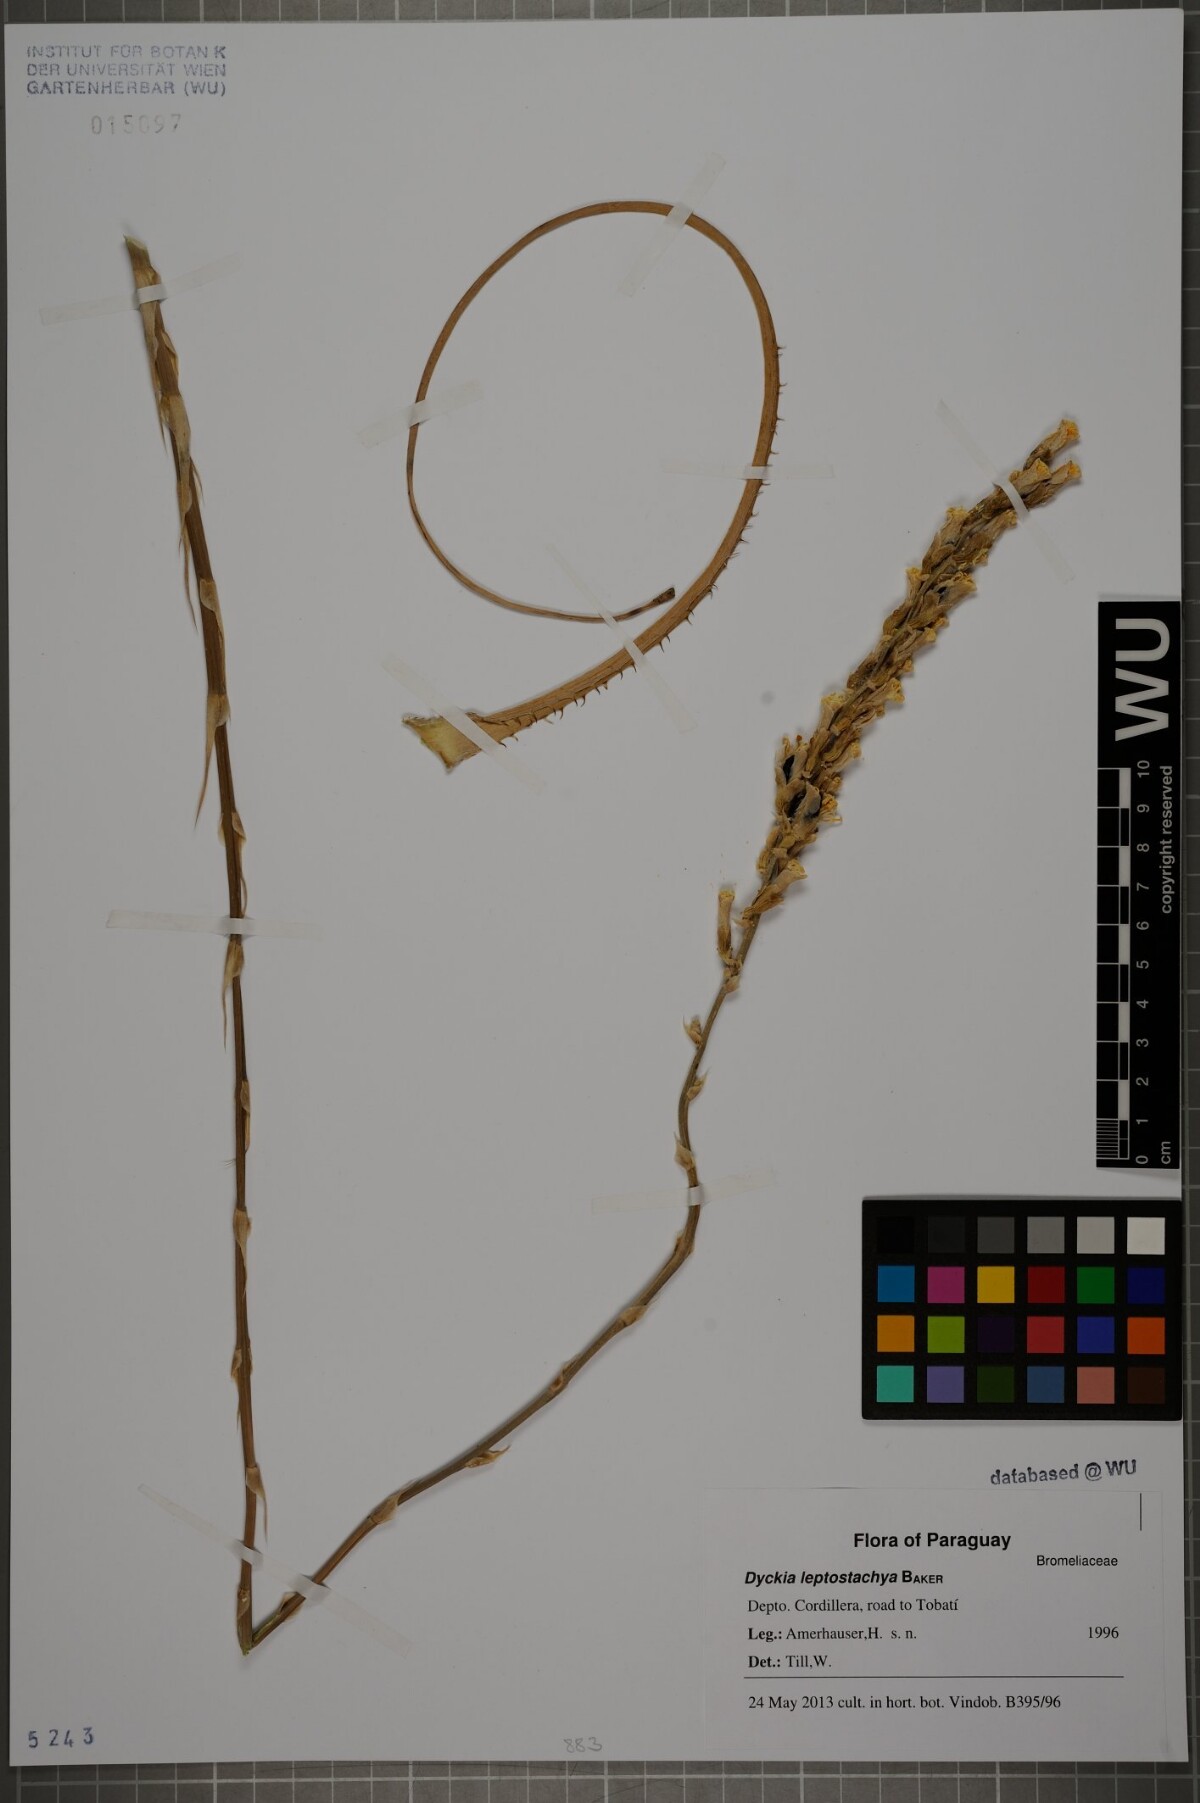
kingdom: Plantae
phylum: Tracheophyta
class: Liliopsida
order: Poales
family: Bromeliaceae
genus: Dyckia
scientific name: Dyckia leptostachya
